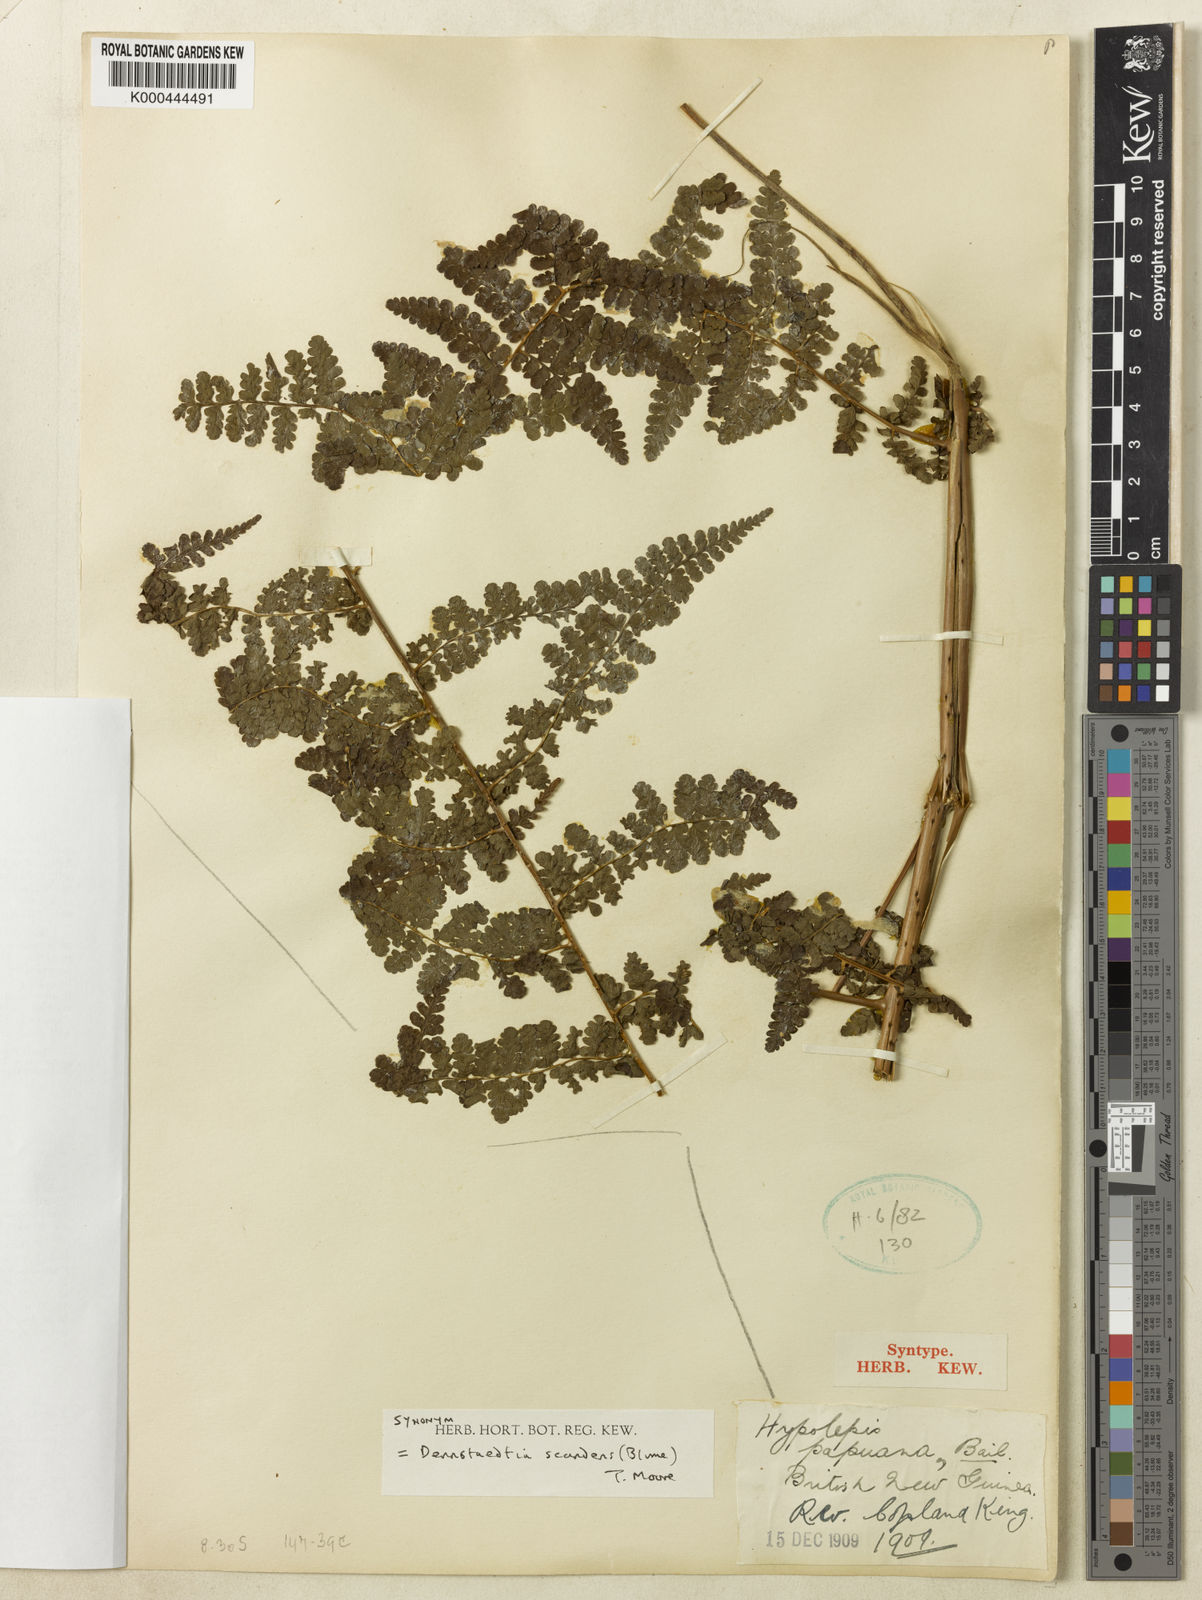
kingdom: Plantae
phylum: Tracheophyta
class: Polypodiopsida
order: Polypodiales
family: Dennstaedtiaceae
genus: Dennstaedtia
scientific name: Dennstaedtia scandens
